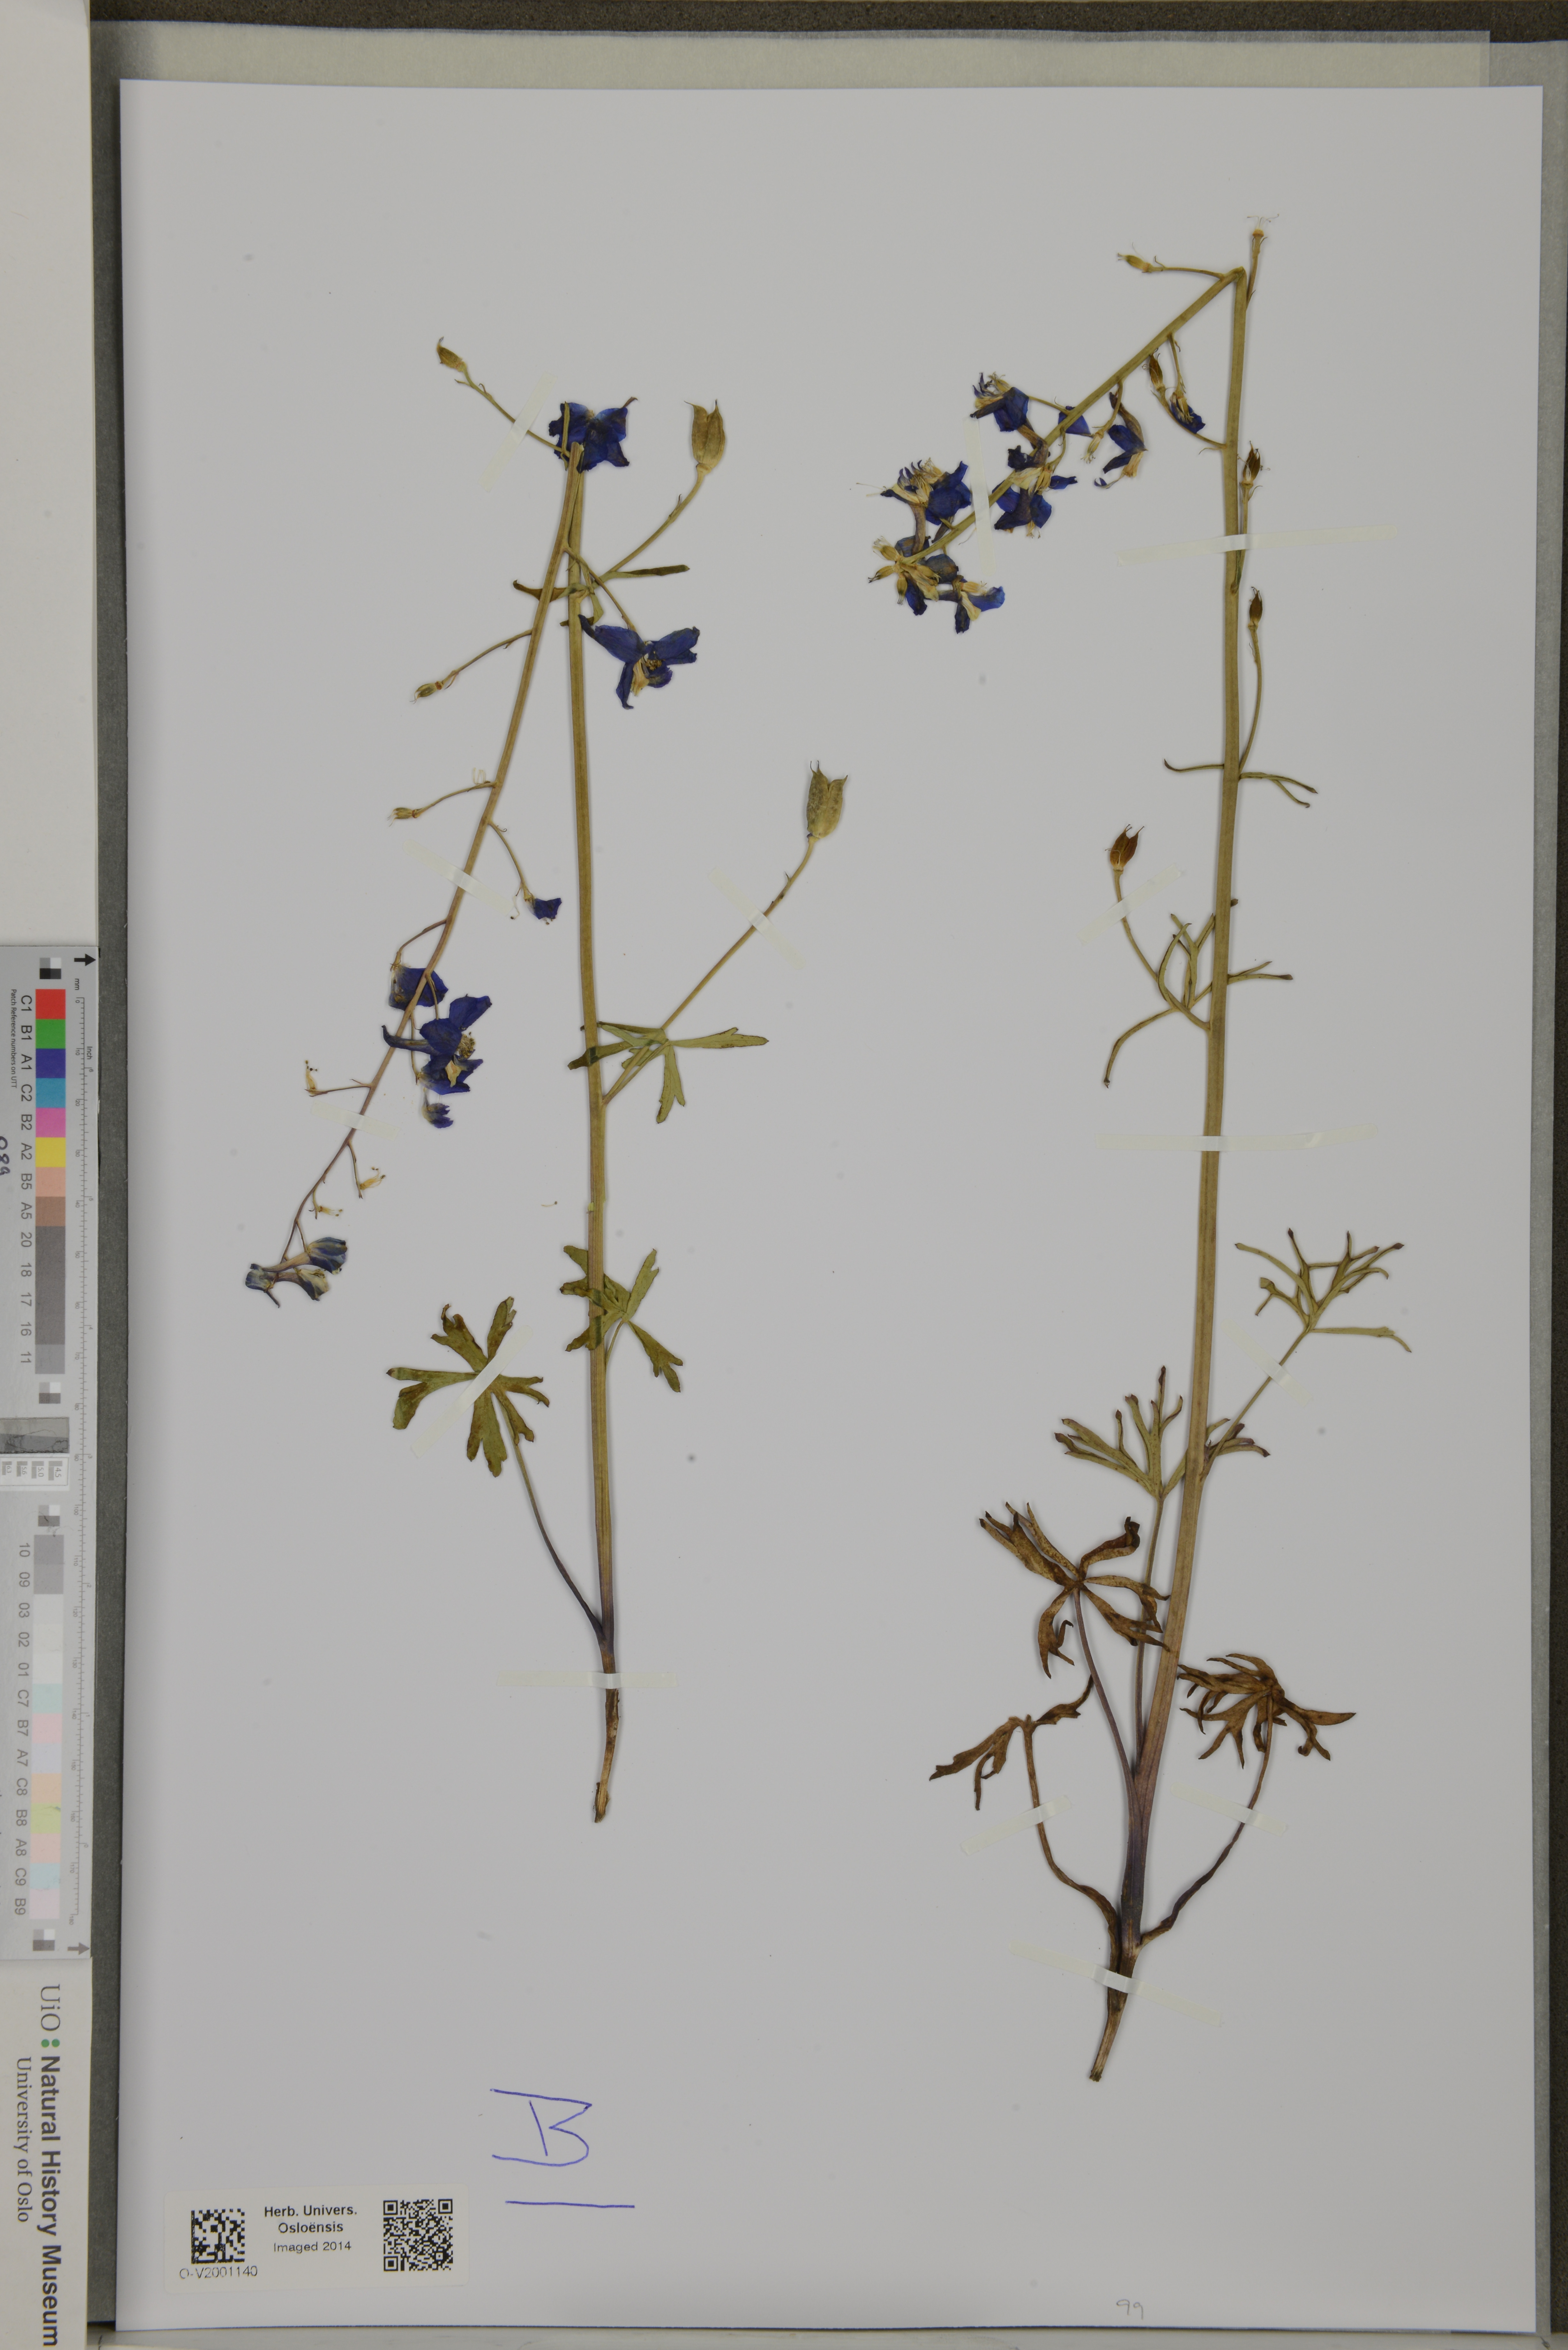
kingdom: Plantae
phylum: Tracheophyta
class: Magnoliopsida
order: Ranunculales
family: Ranunculaceae
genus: Delphinium
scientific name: Delphinium
